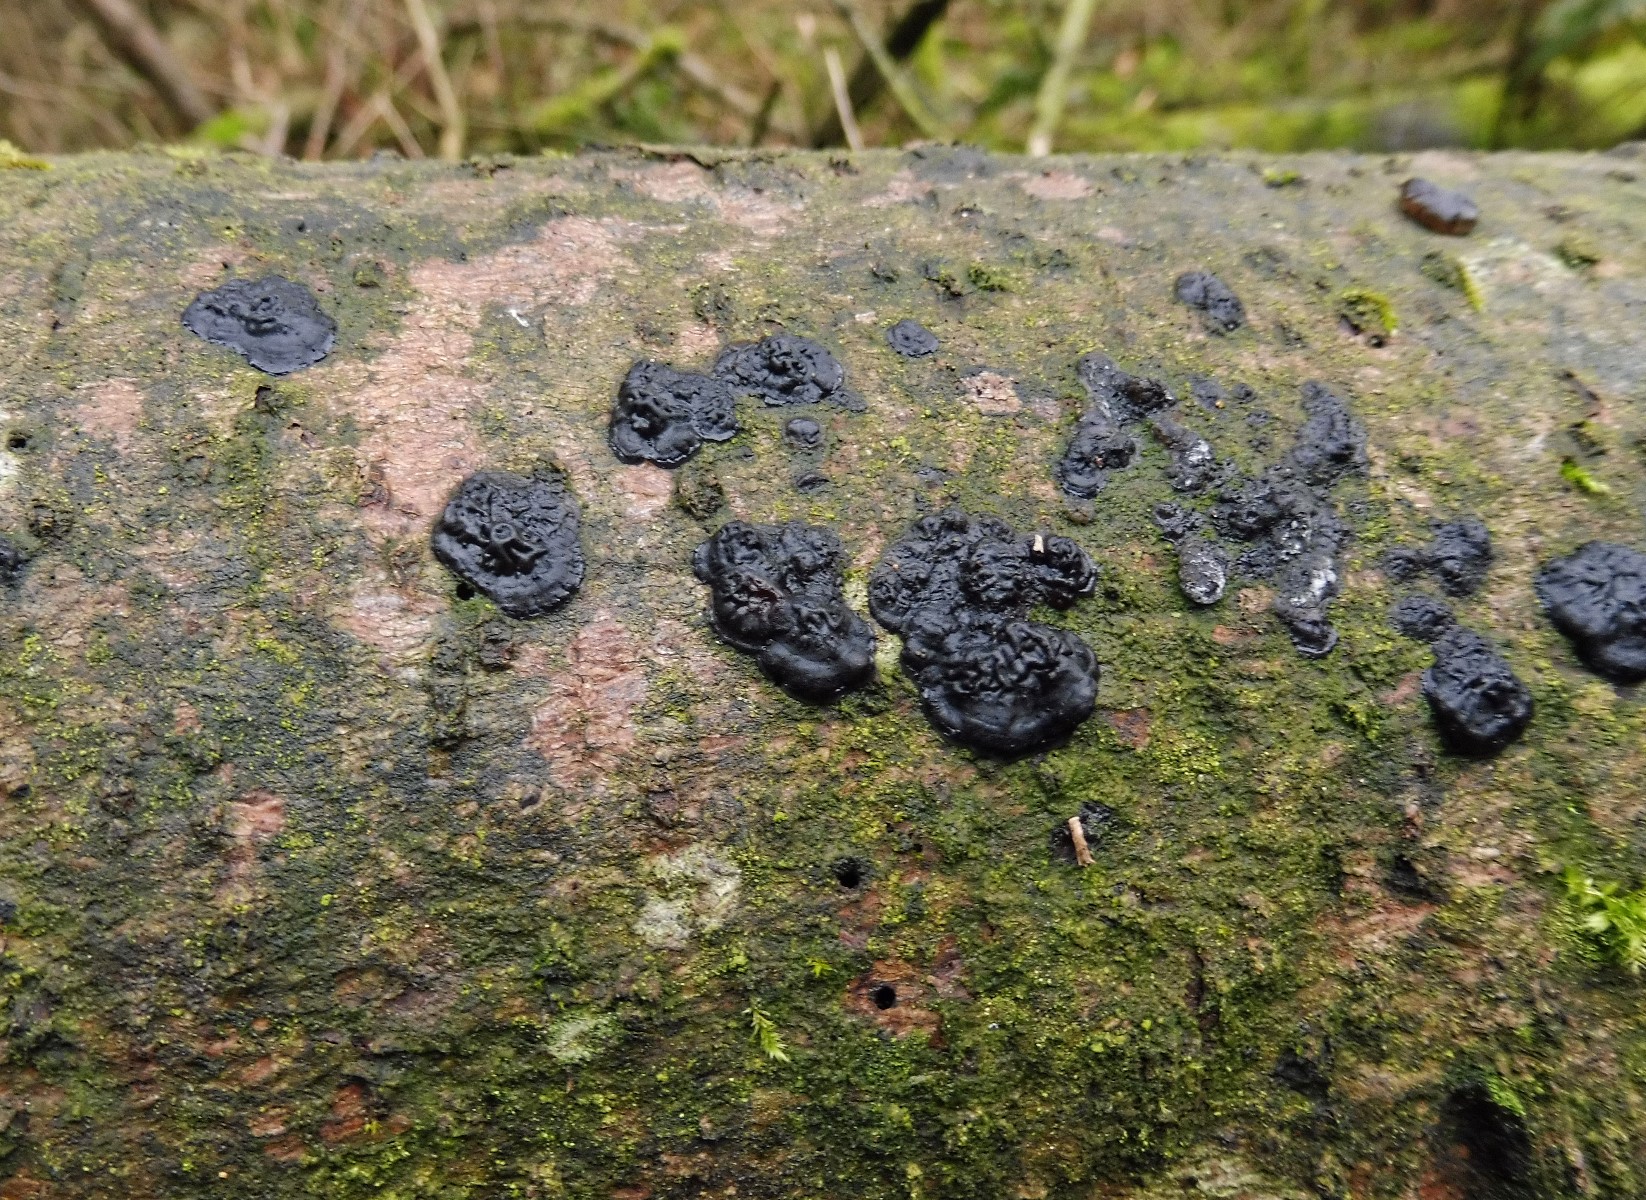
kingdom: Fungi
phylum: Basidiomycota
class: Agaricomycetes
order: Auriculariales
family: Auriculariaceae
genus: Exidia
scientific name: Exidia pithya
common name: gran-bævretop
